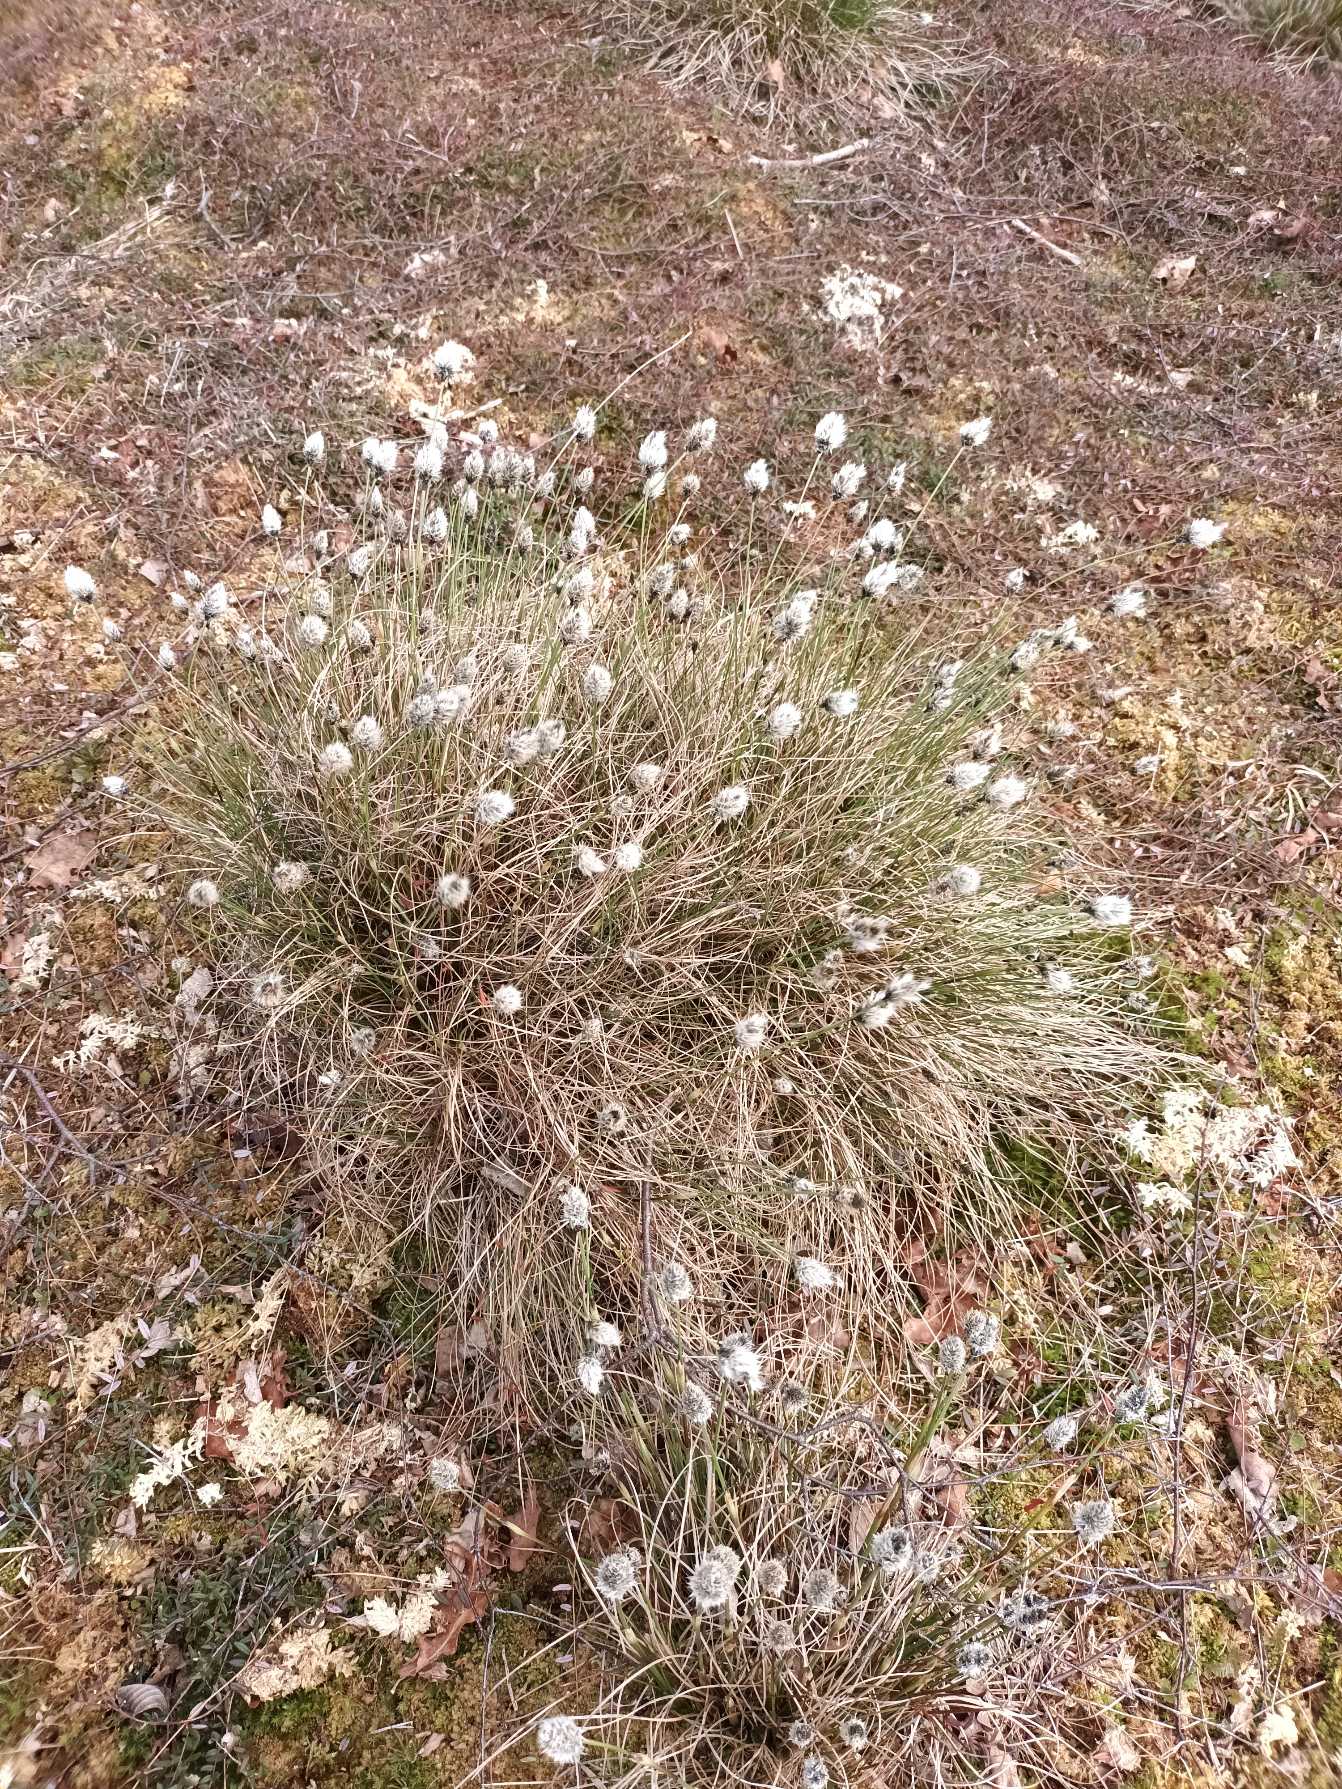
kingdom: Plantae
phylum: Tracheophyta
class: Liliopsida
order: Poales
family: Cyperaceae
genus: Eriophorum
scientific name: Eriophorum vaginatum
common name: Tue-kæruld
